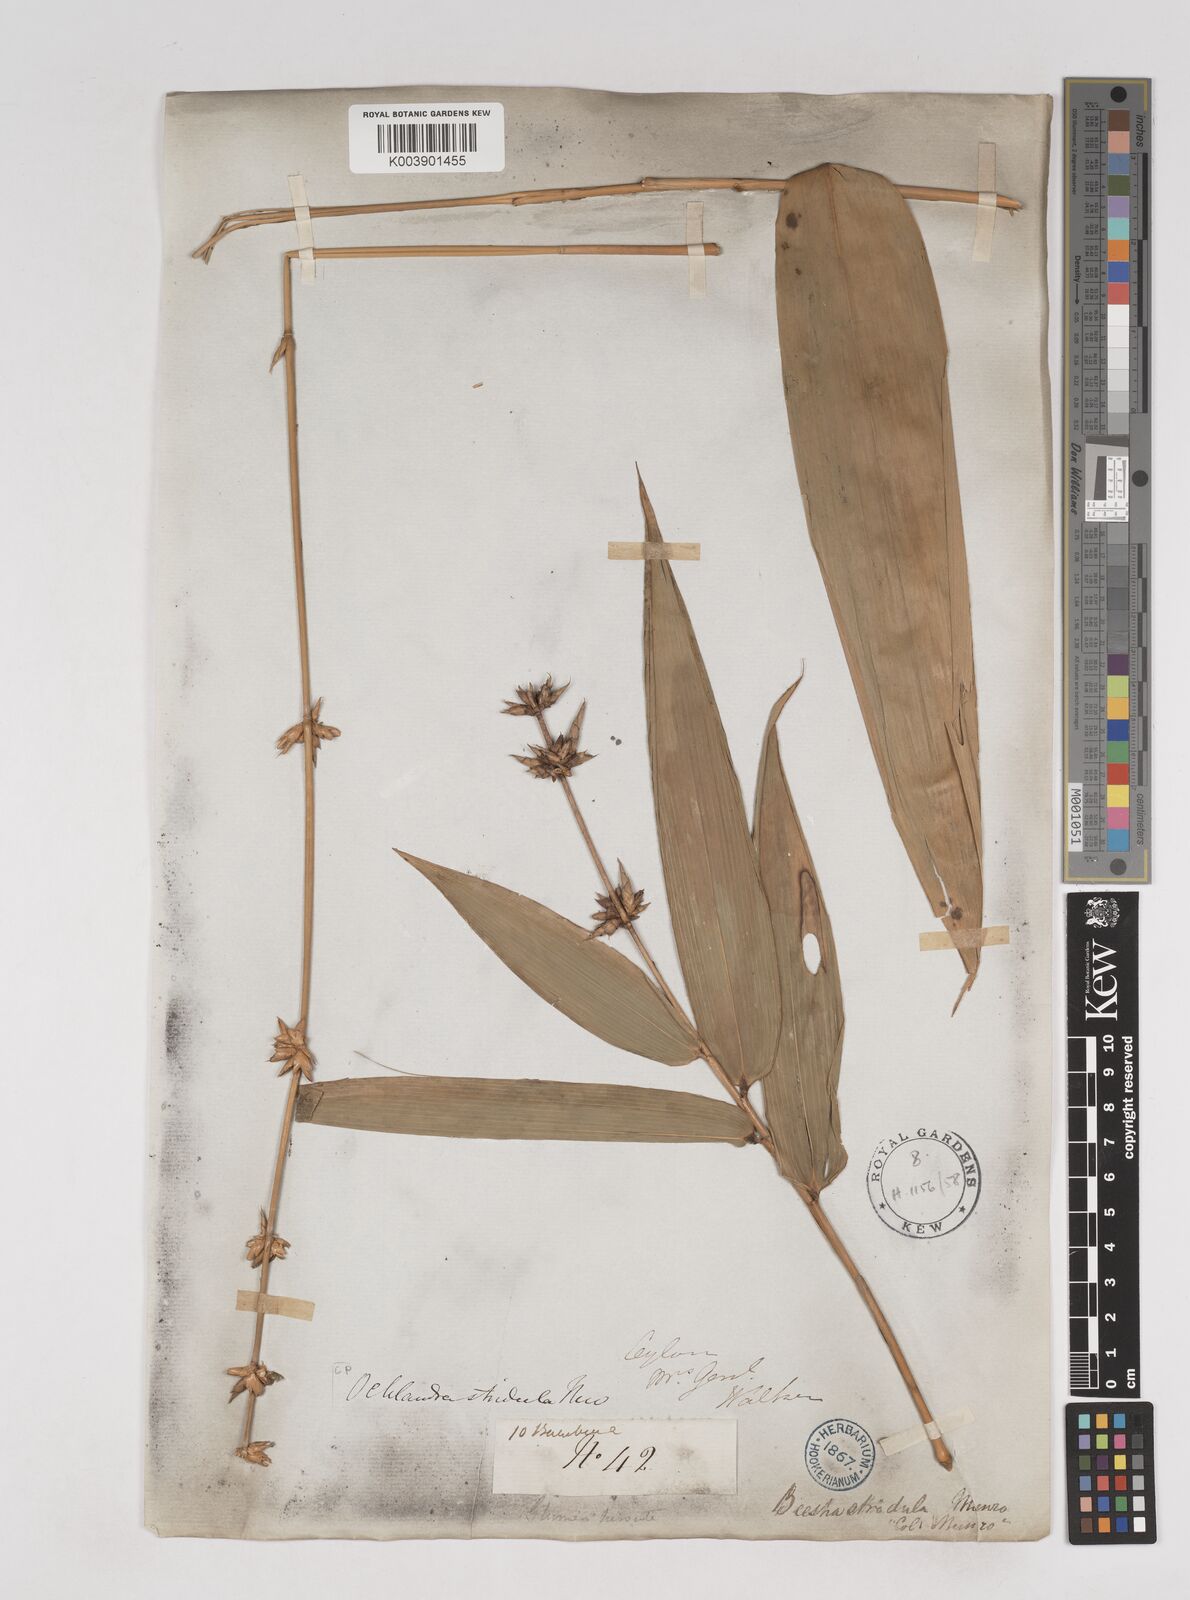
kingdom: Plantae
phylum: Tracheophyta
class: Liliopsida
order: Poales
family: Poaceae
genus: Ochlandra
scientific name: Ochlandra stridula
